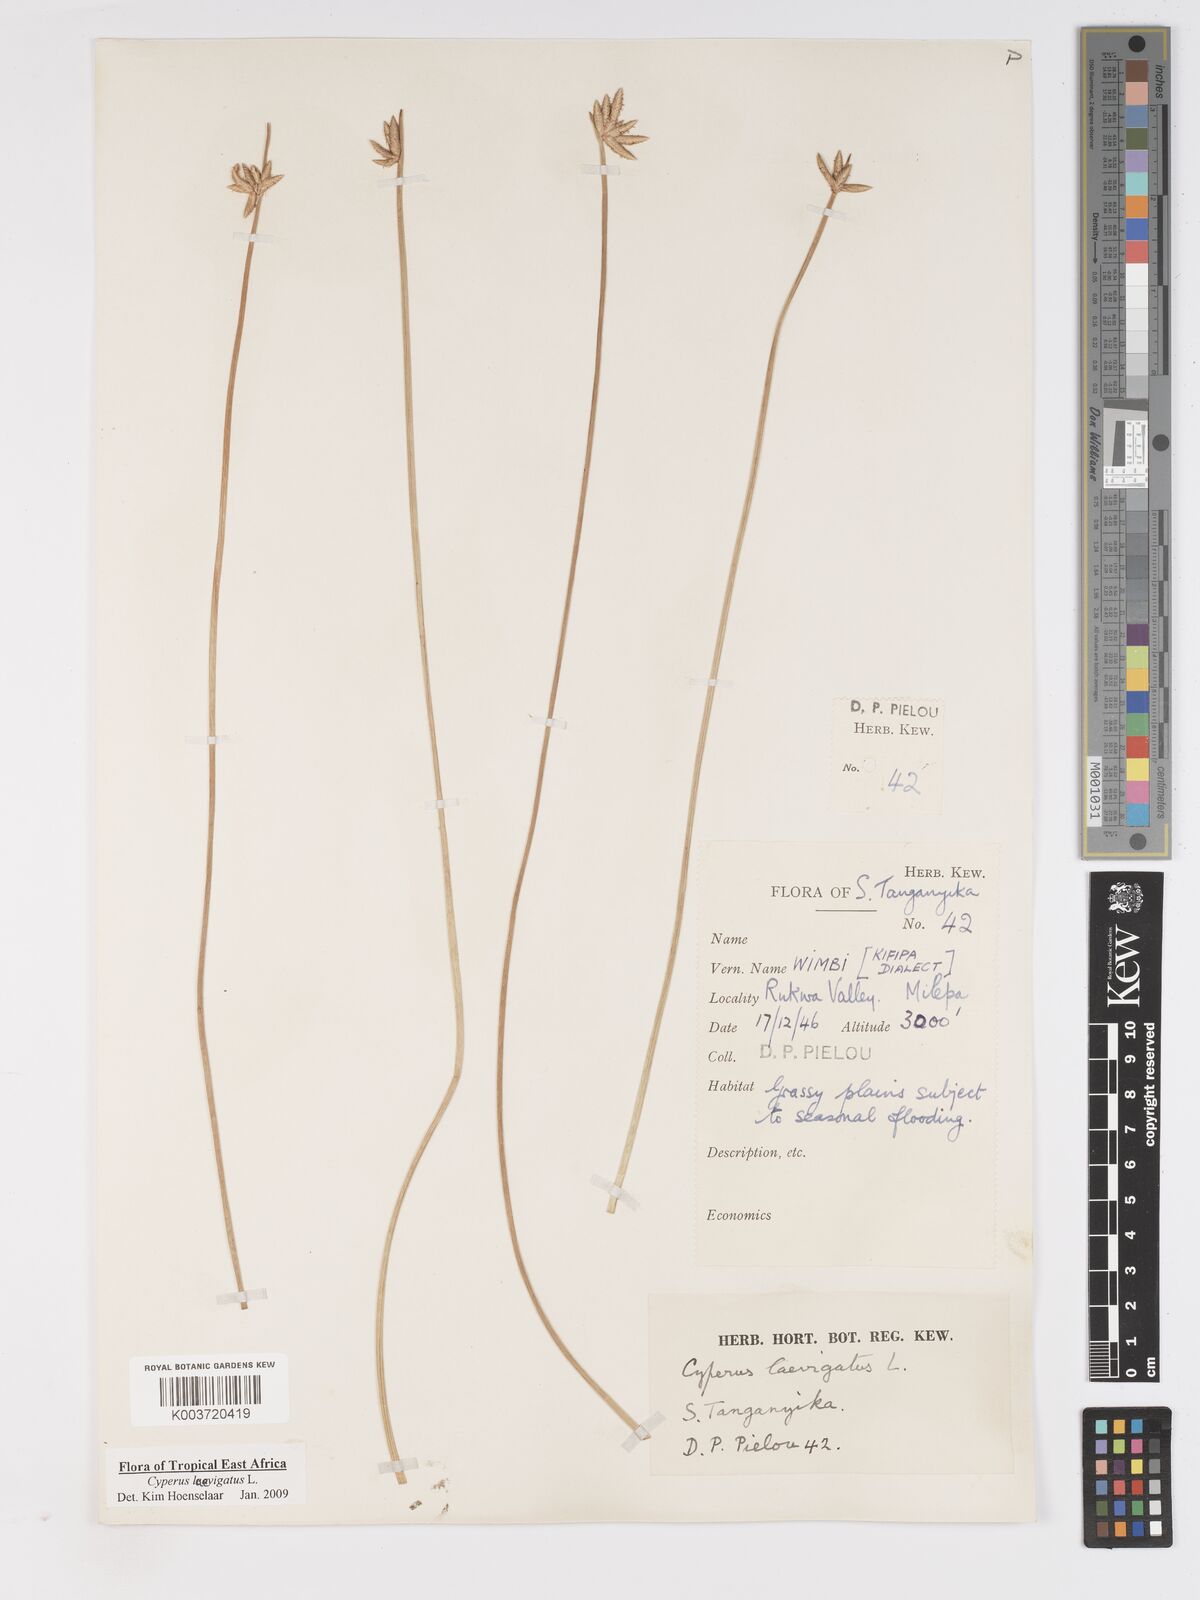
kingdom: Plantae
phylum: Tracheophyta
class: Liliopsida
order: Poales
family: Cyperaceae
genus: Cyperus
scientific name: Cyperus laevigatus
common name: Smooth flat sedge
